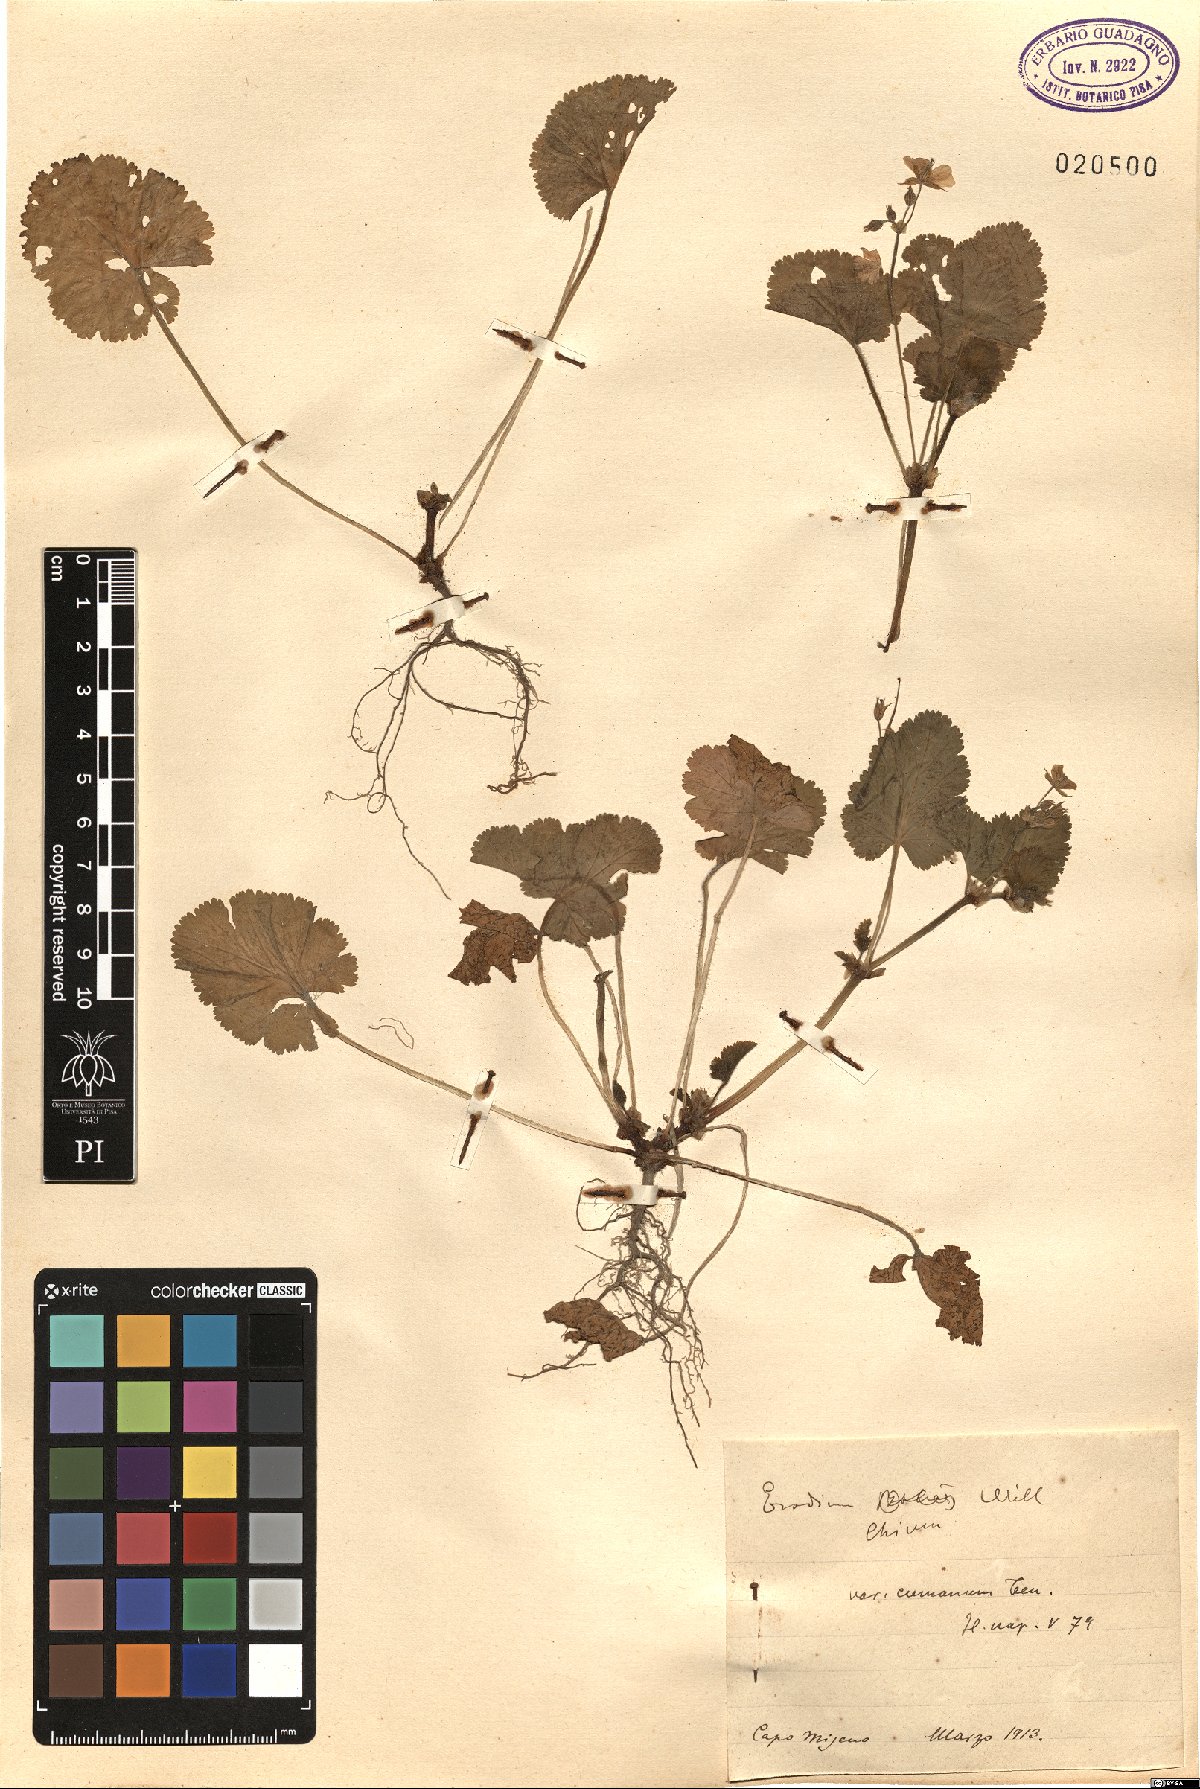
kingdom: Plantae
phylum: Tracheophyta
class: Magnoliopsida
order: Geraniales
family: Geraniaceae
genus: Erodium
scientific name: Erodium chium
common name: Three-lobed stork's-bill
